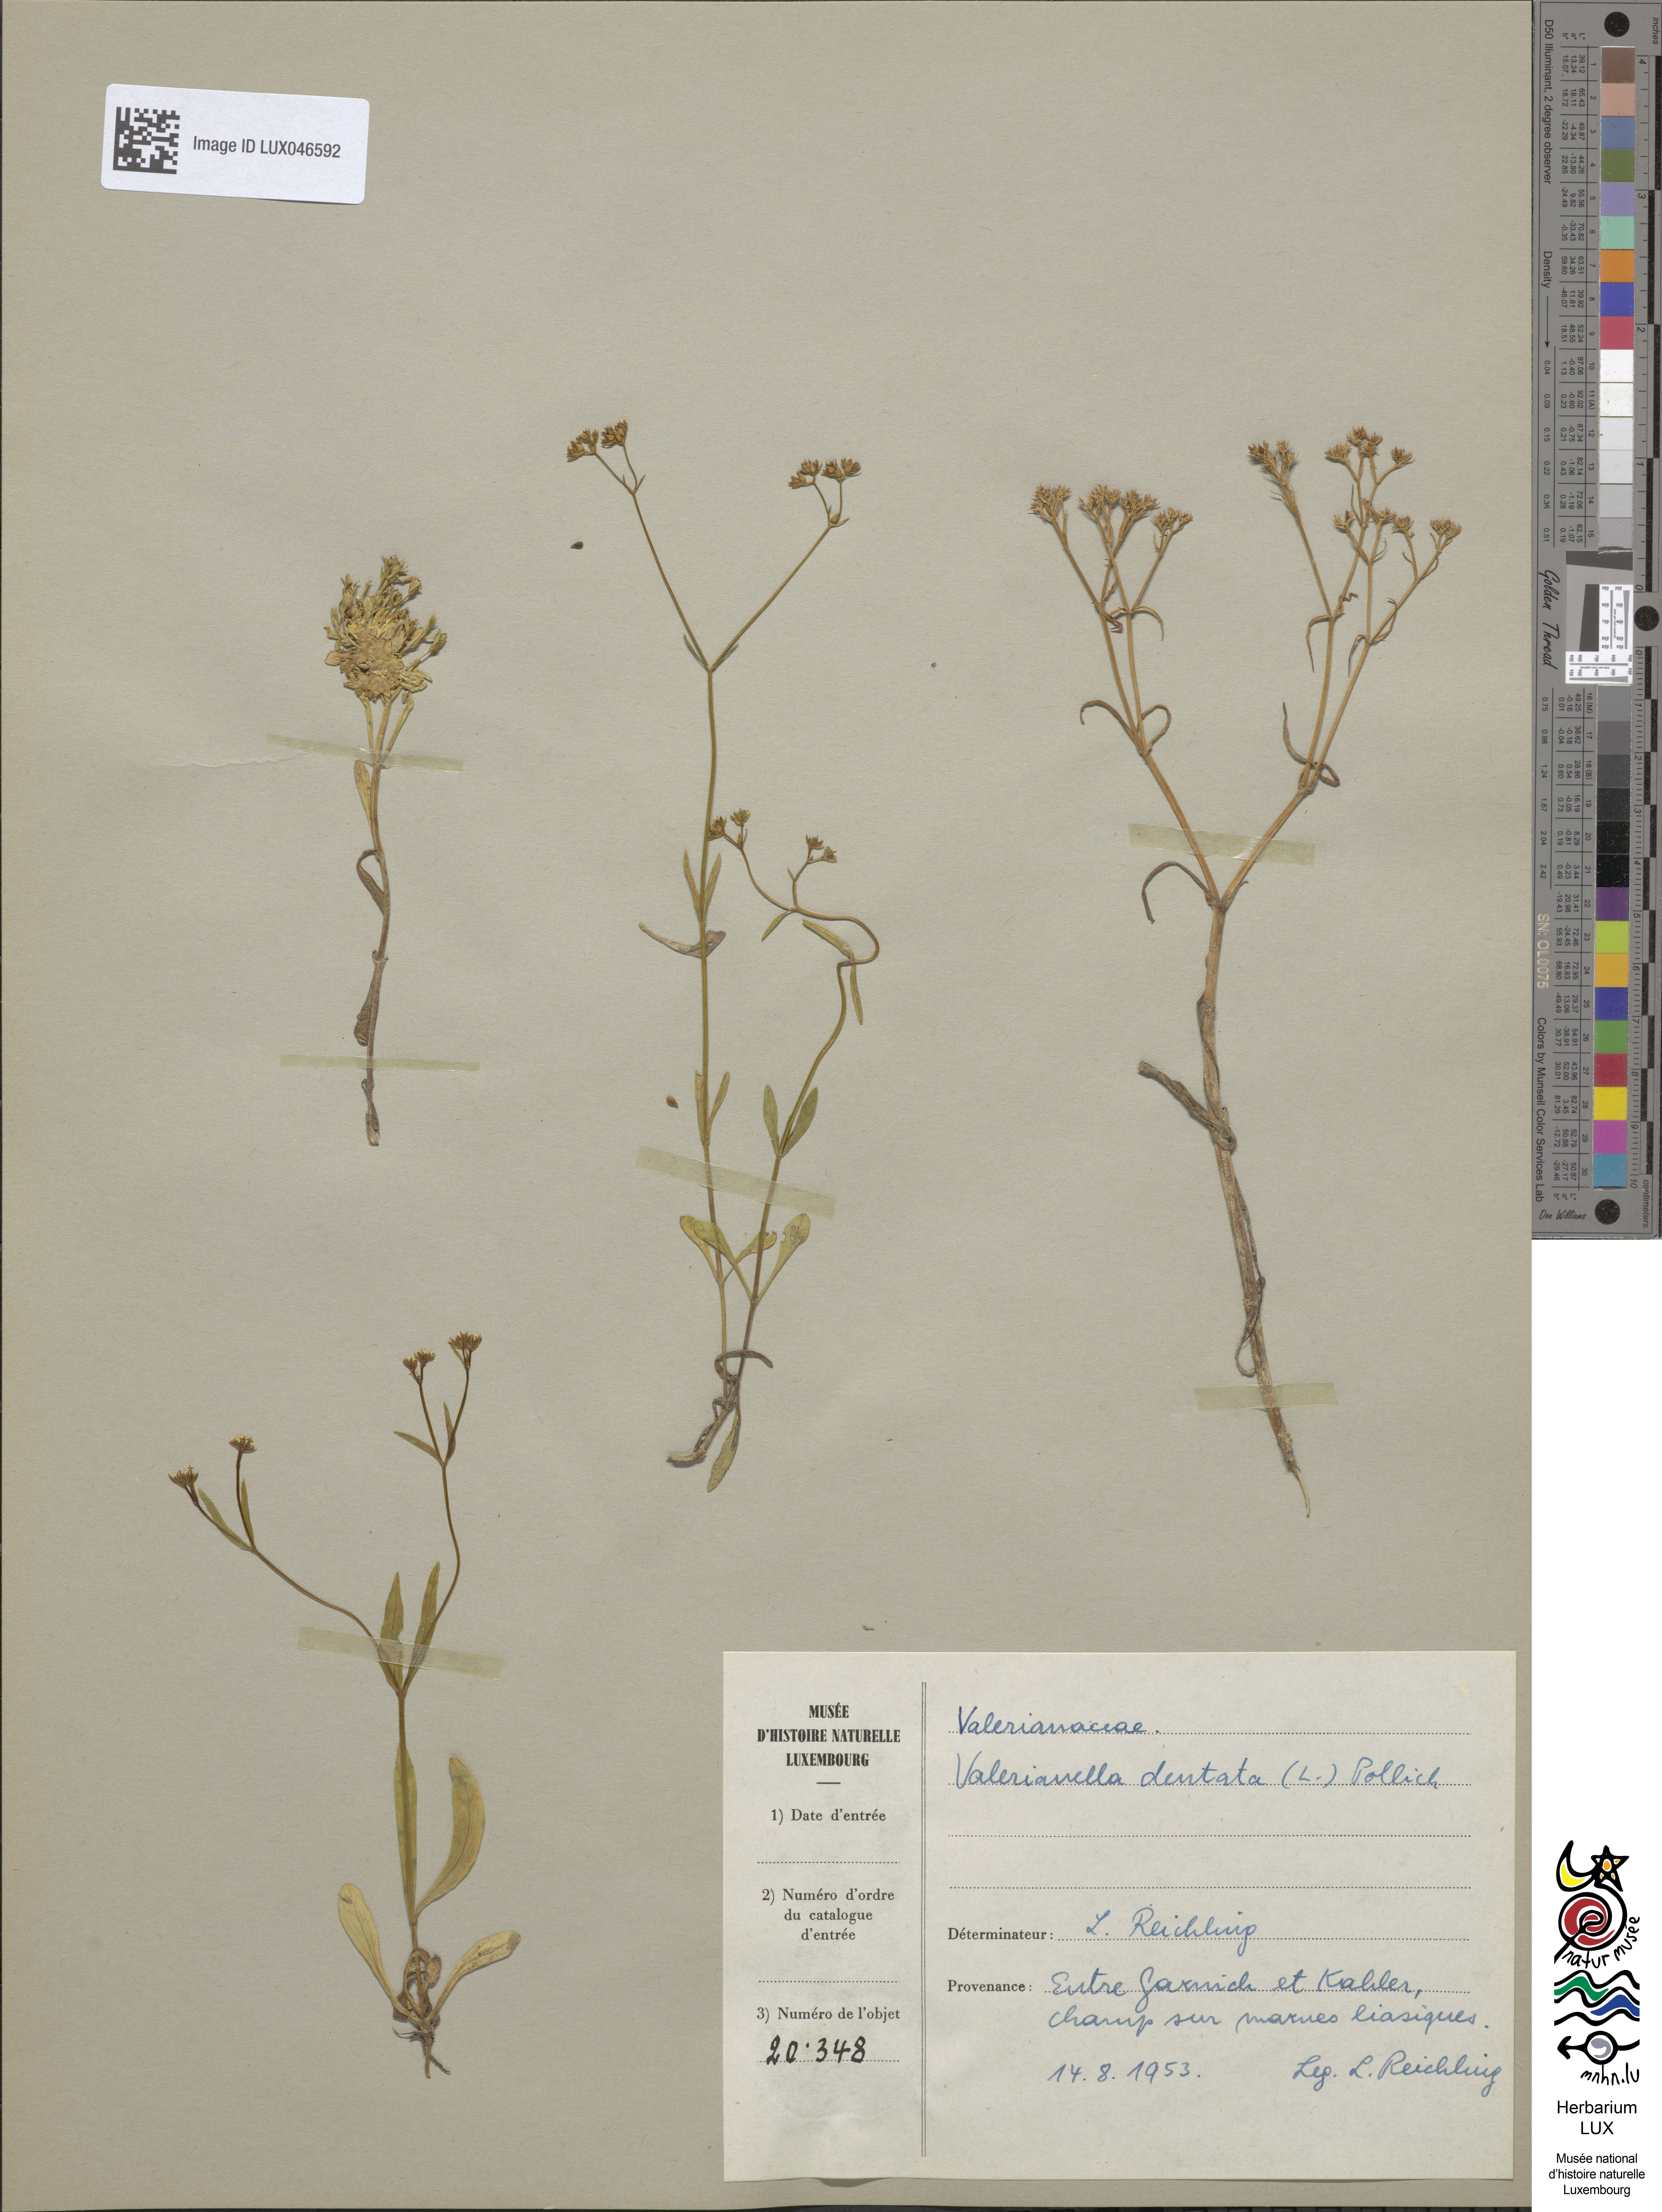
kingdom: Plantae
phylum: Tracheophyta
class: Magnoliopsida
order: Dipsacales
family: Caprifoliaceae
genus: Valerianella
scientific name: Valerianella dentata
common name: Narrow-fruited cornsalad
